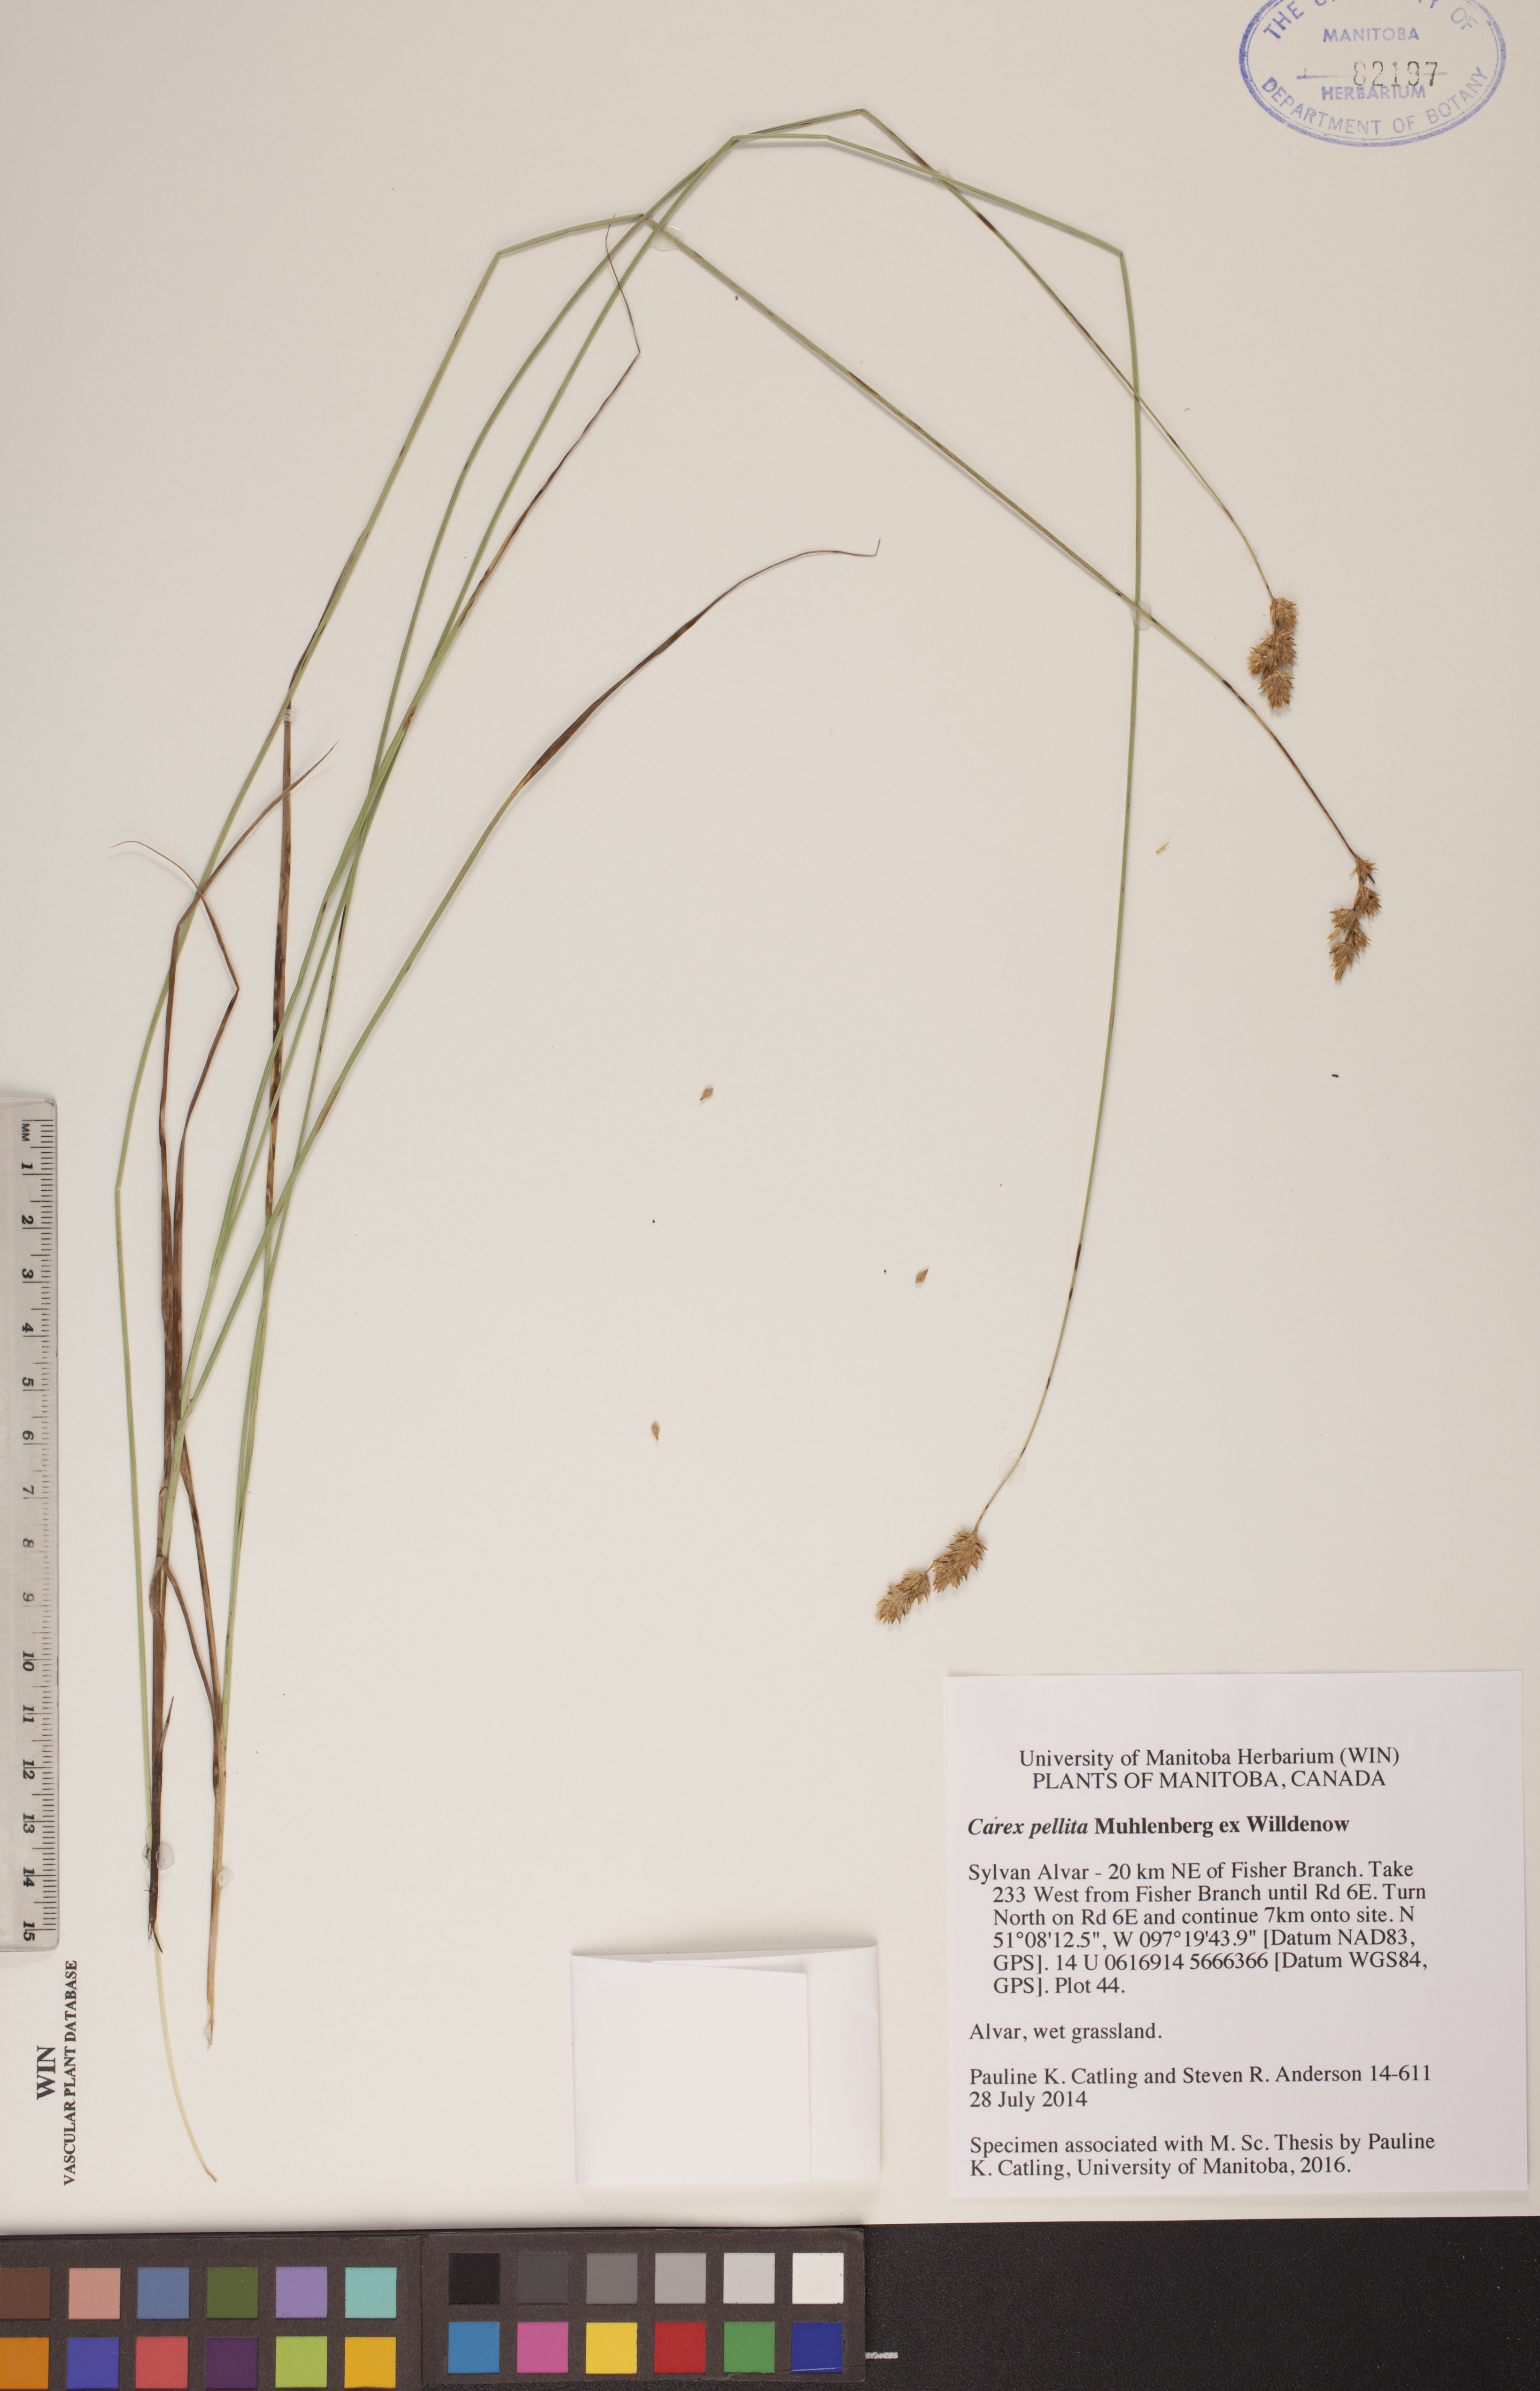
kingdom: Plantae
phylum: Tracheophyta
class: Liliopsida
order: Poales
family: Cyperaceae
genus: Carex
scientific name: Carex pellita
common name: Woolly sedge
